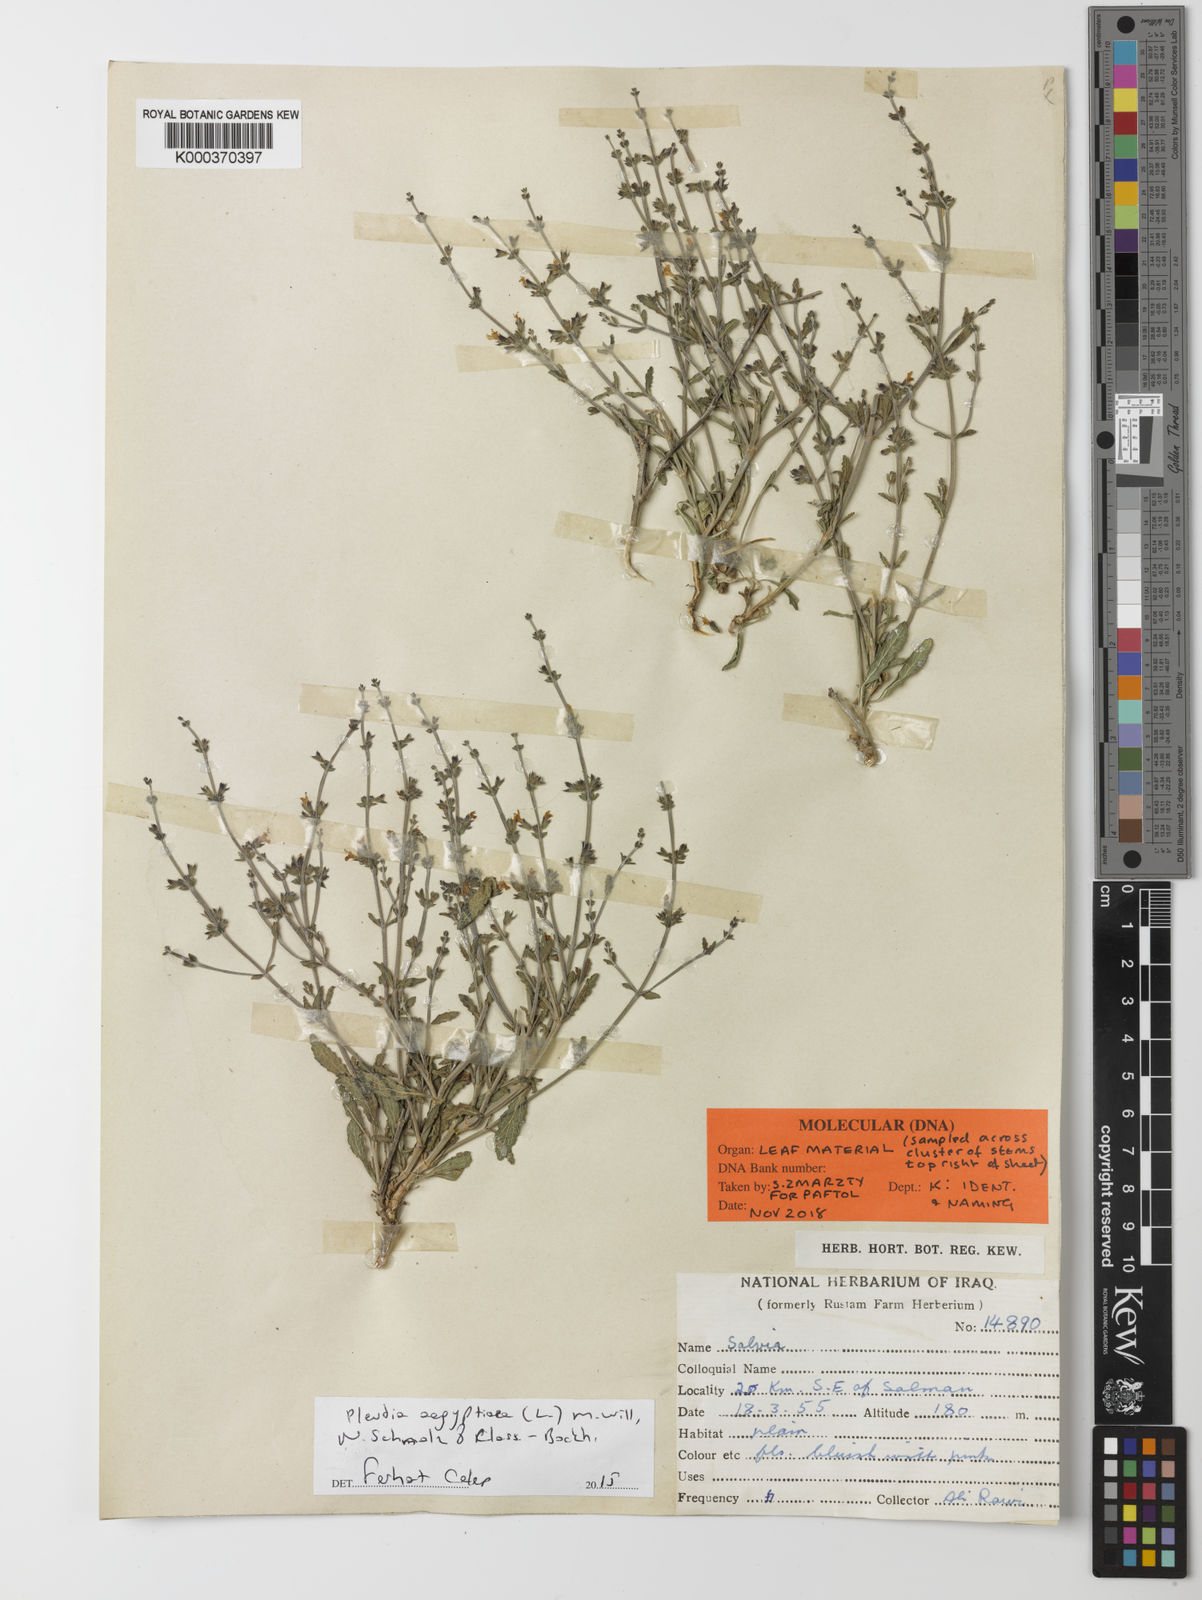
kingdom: Plantae
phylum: Tracheophyta
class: Magnoliopsida
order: Lamiales
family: Lamiaceae
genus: Salvia
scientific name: Salvia aegyptiaca
